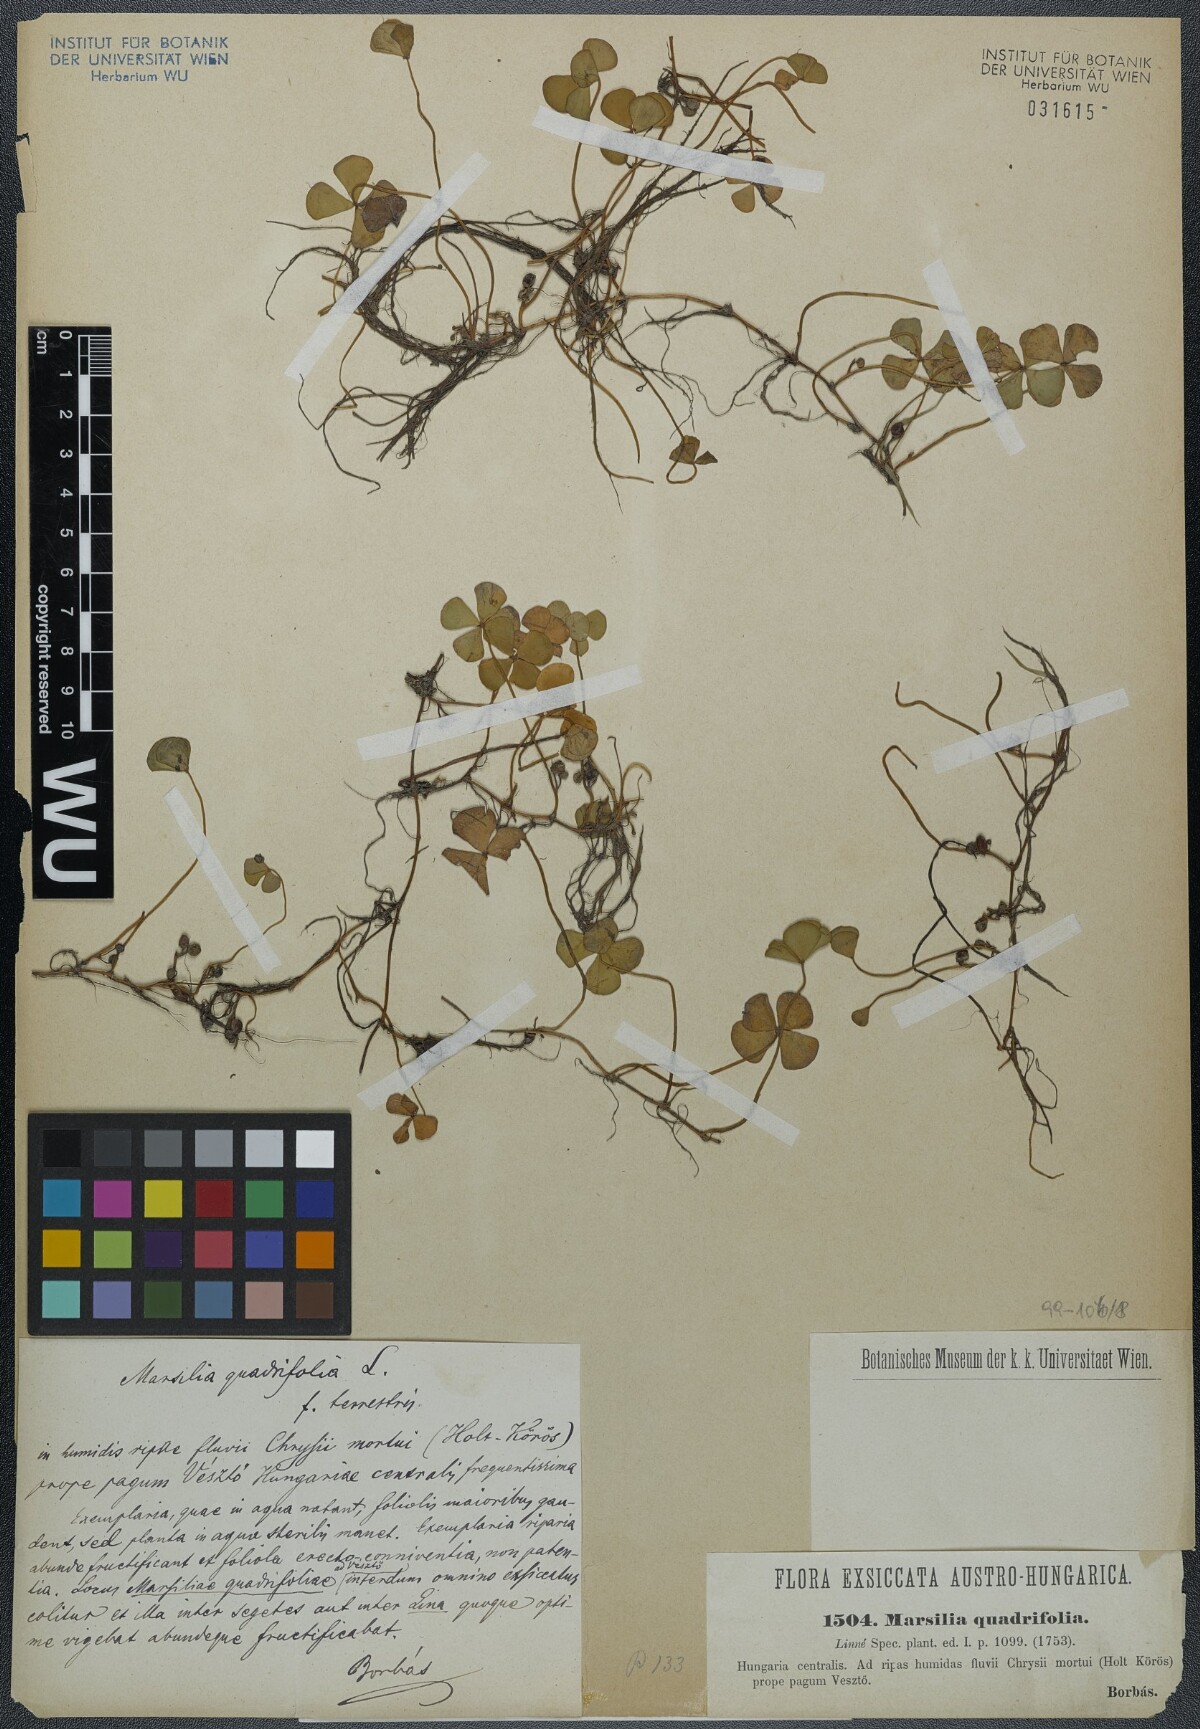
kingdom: Plantae
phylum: Tracheophyta
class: Polypodiopsida
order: Salviniales
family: Marsileaceae
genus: Marsilea
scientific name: Marsilea quadrifolia
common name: Water shamrock
